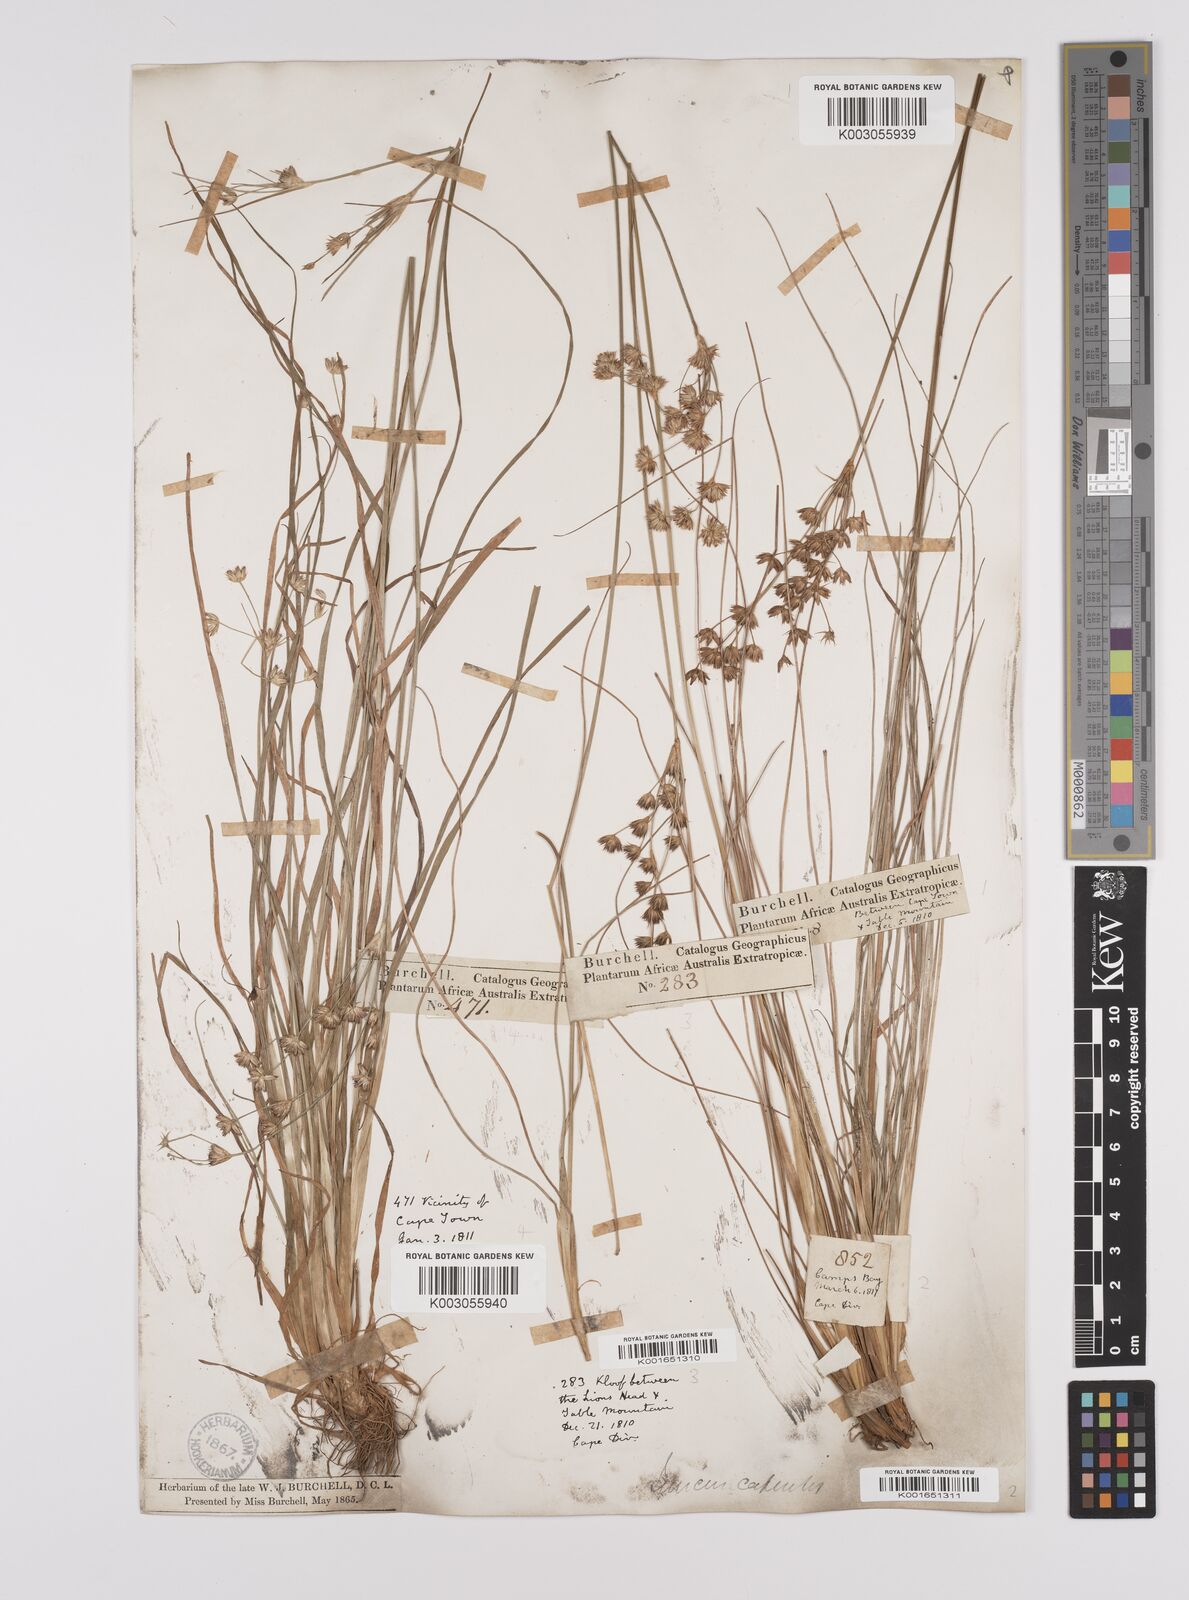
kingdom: Plantae
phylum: Tracheophyta
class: Liliopsida
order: Poales
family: Juncaceae
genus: Juncus
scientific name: Juncus capensis
